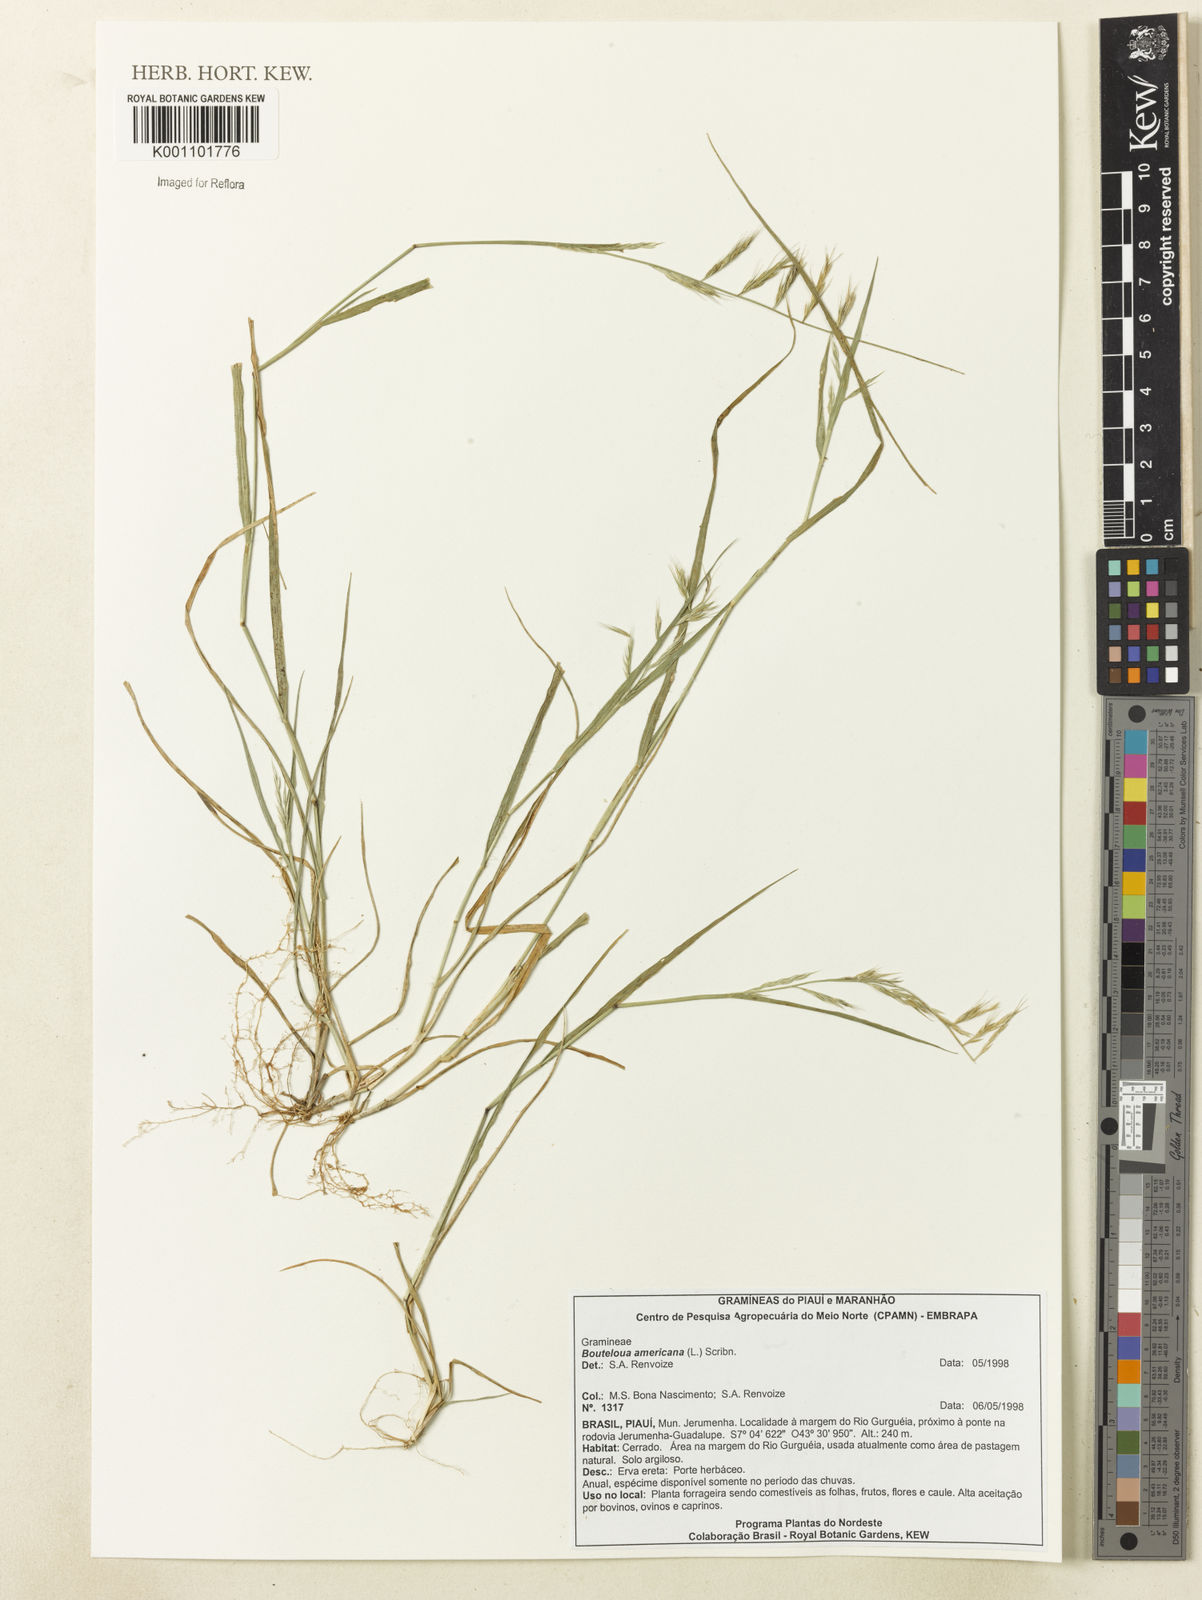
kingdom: Plantae
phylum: Tracheophyta
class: Liliopsida
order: Poales
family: Poaceae
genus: Bouteloua
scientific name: Bouteloua americana
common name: Mule grass
